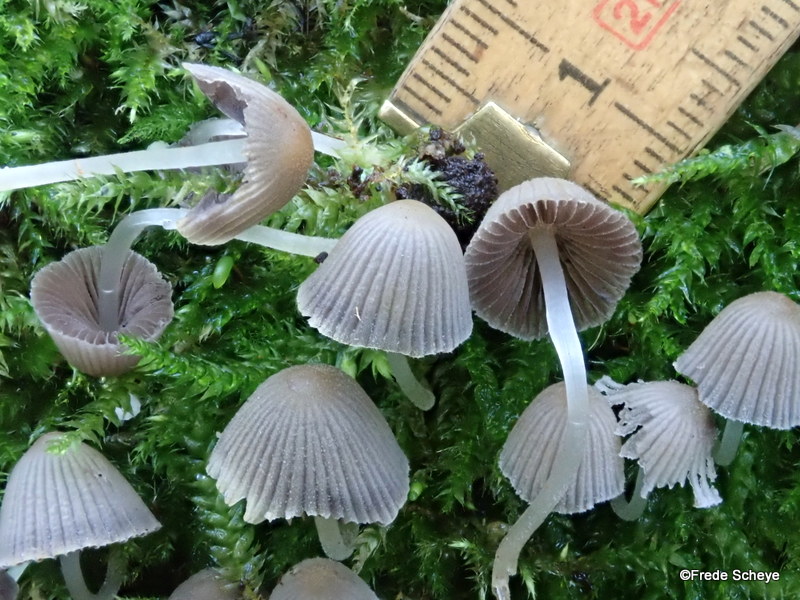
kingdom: Fungi
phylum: Basidiomycota
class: Agaricomycetes
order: Agaricales
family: Psathyrellaceae
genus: Coprinellus
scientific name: Coprinellus disseminatus
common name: bredsået blækhat
